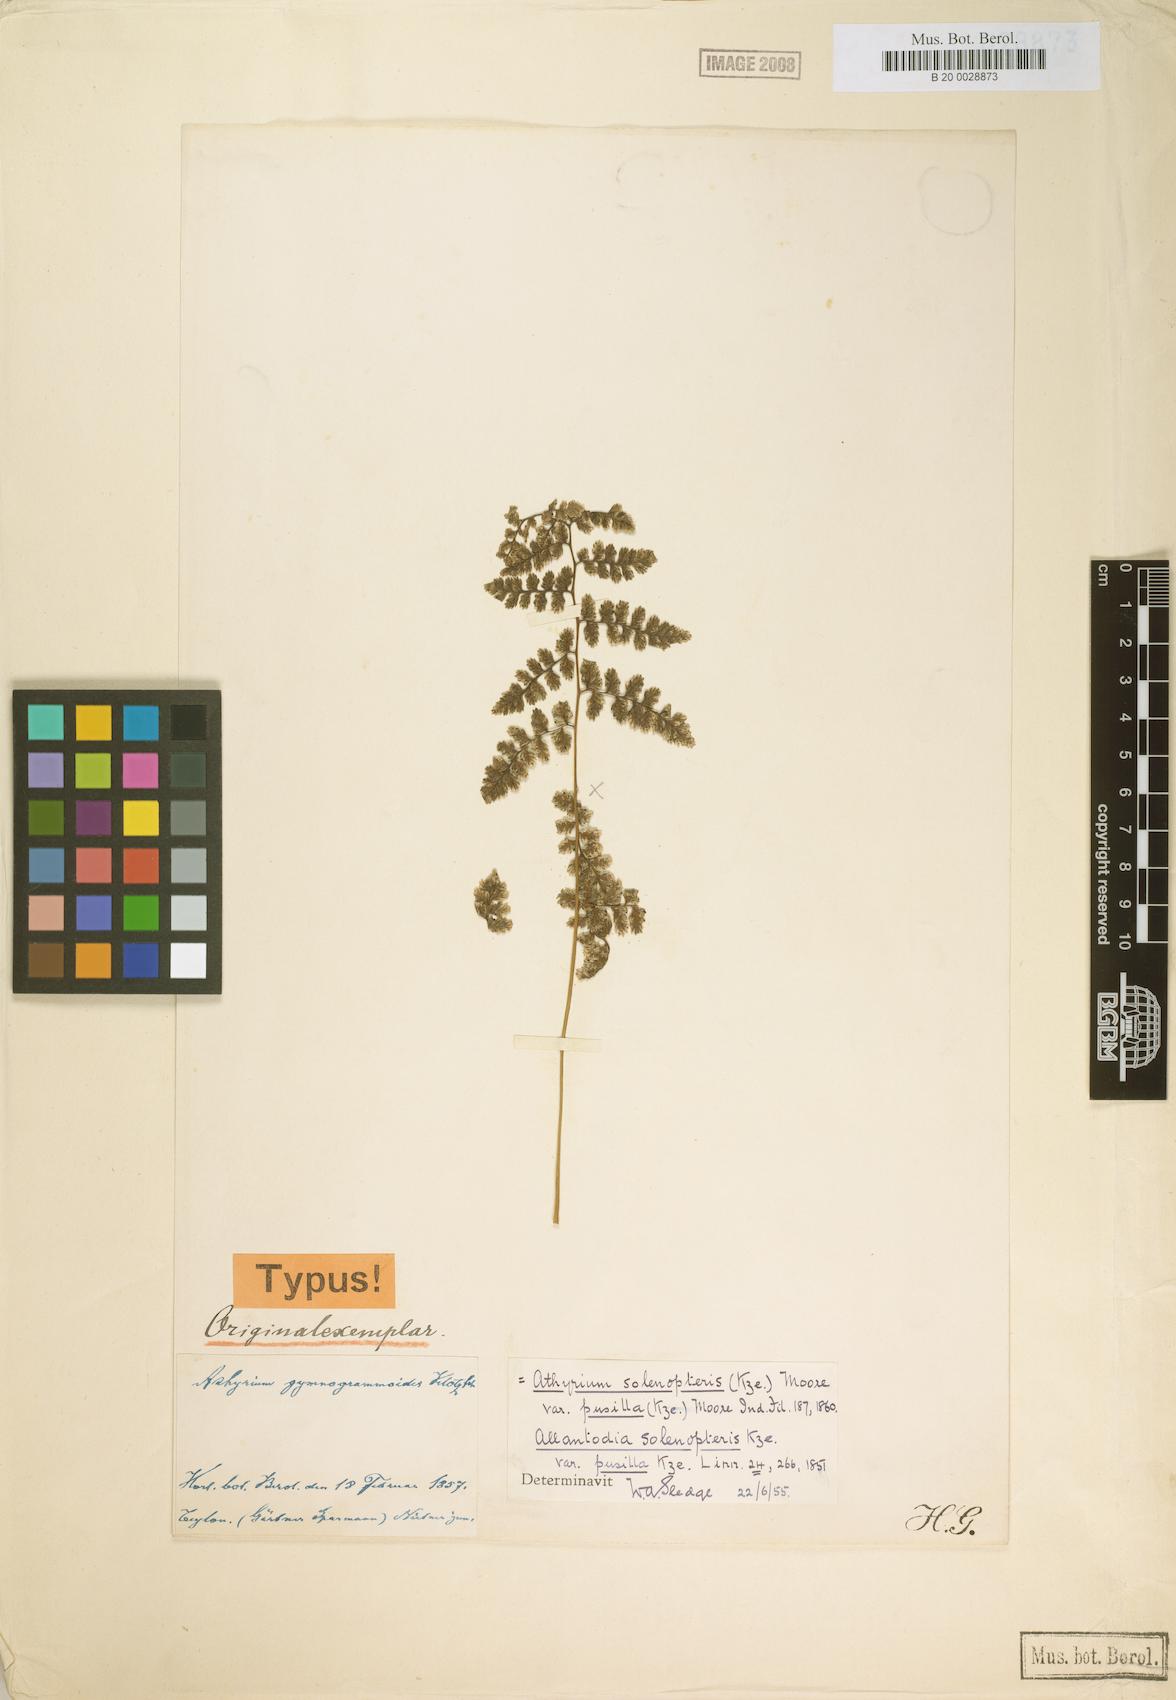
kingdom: Plantae
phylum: Tracheophyta
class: Polypodiopsida
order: Polypodiales
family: Athyriaceae
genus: Athyrium
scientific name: Athyrium gymnogrammoides
